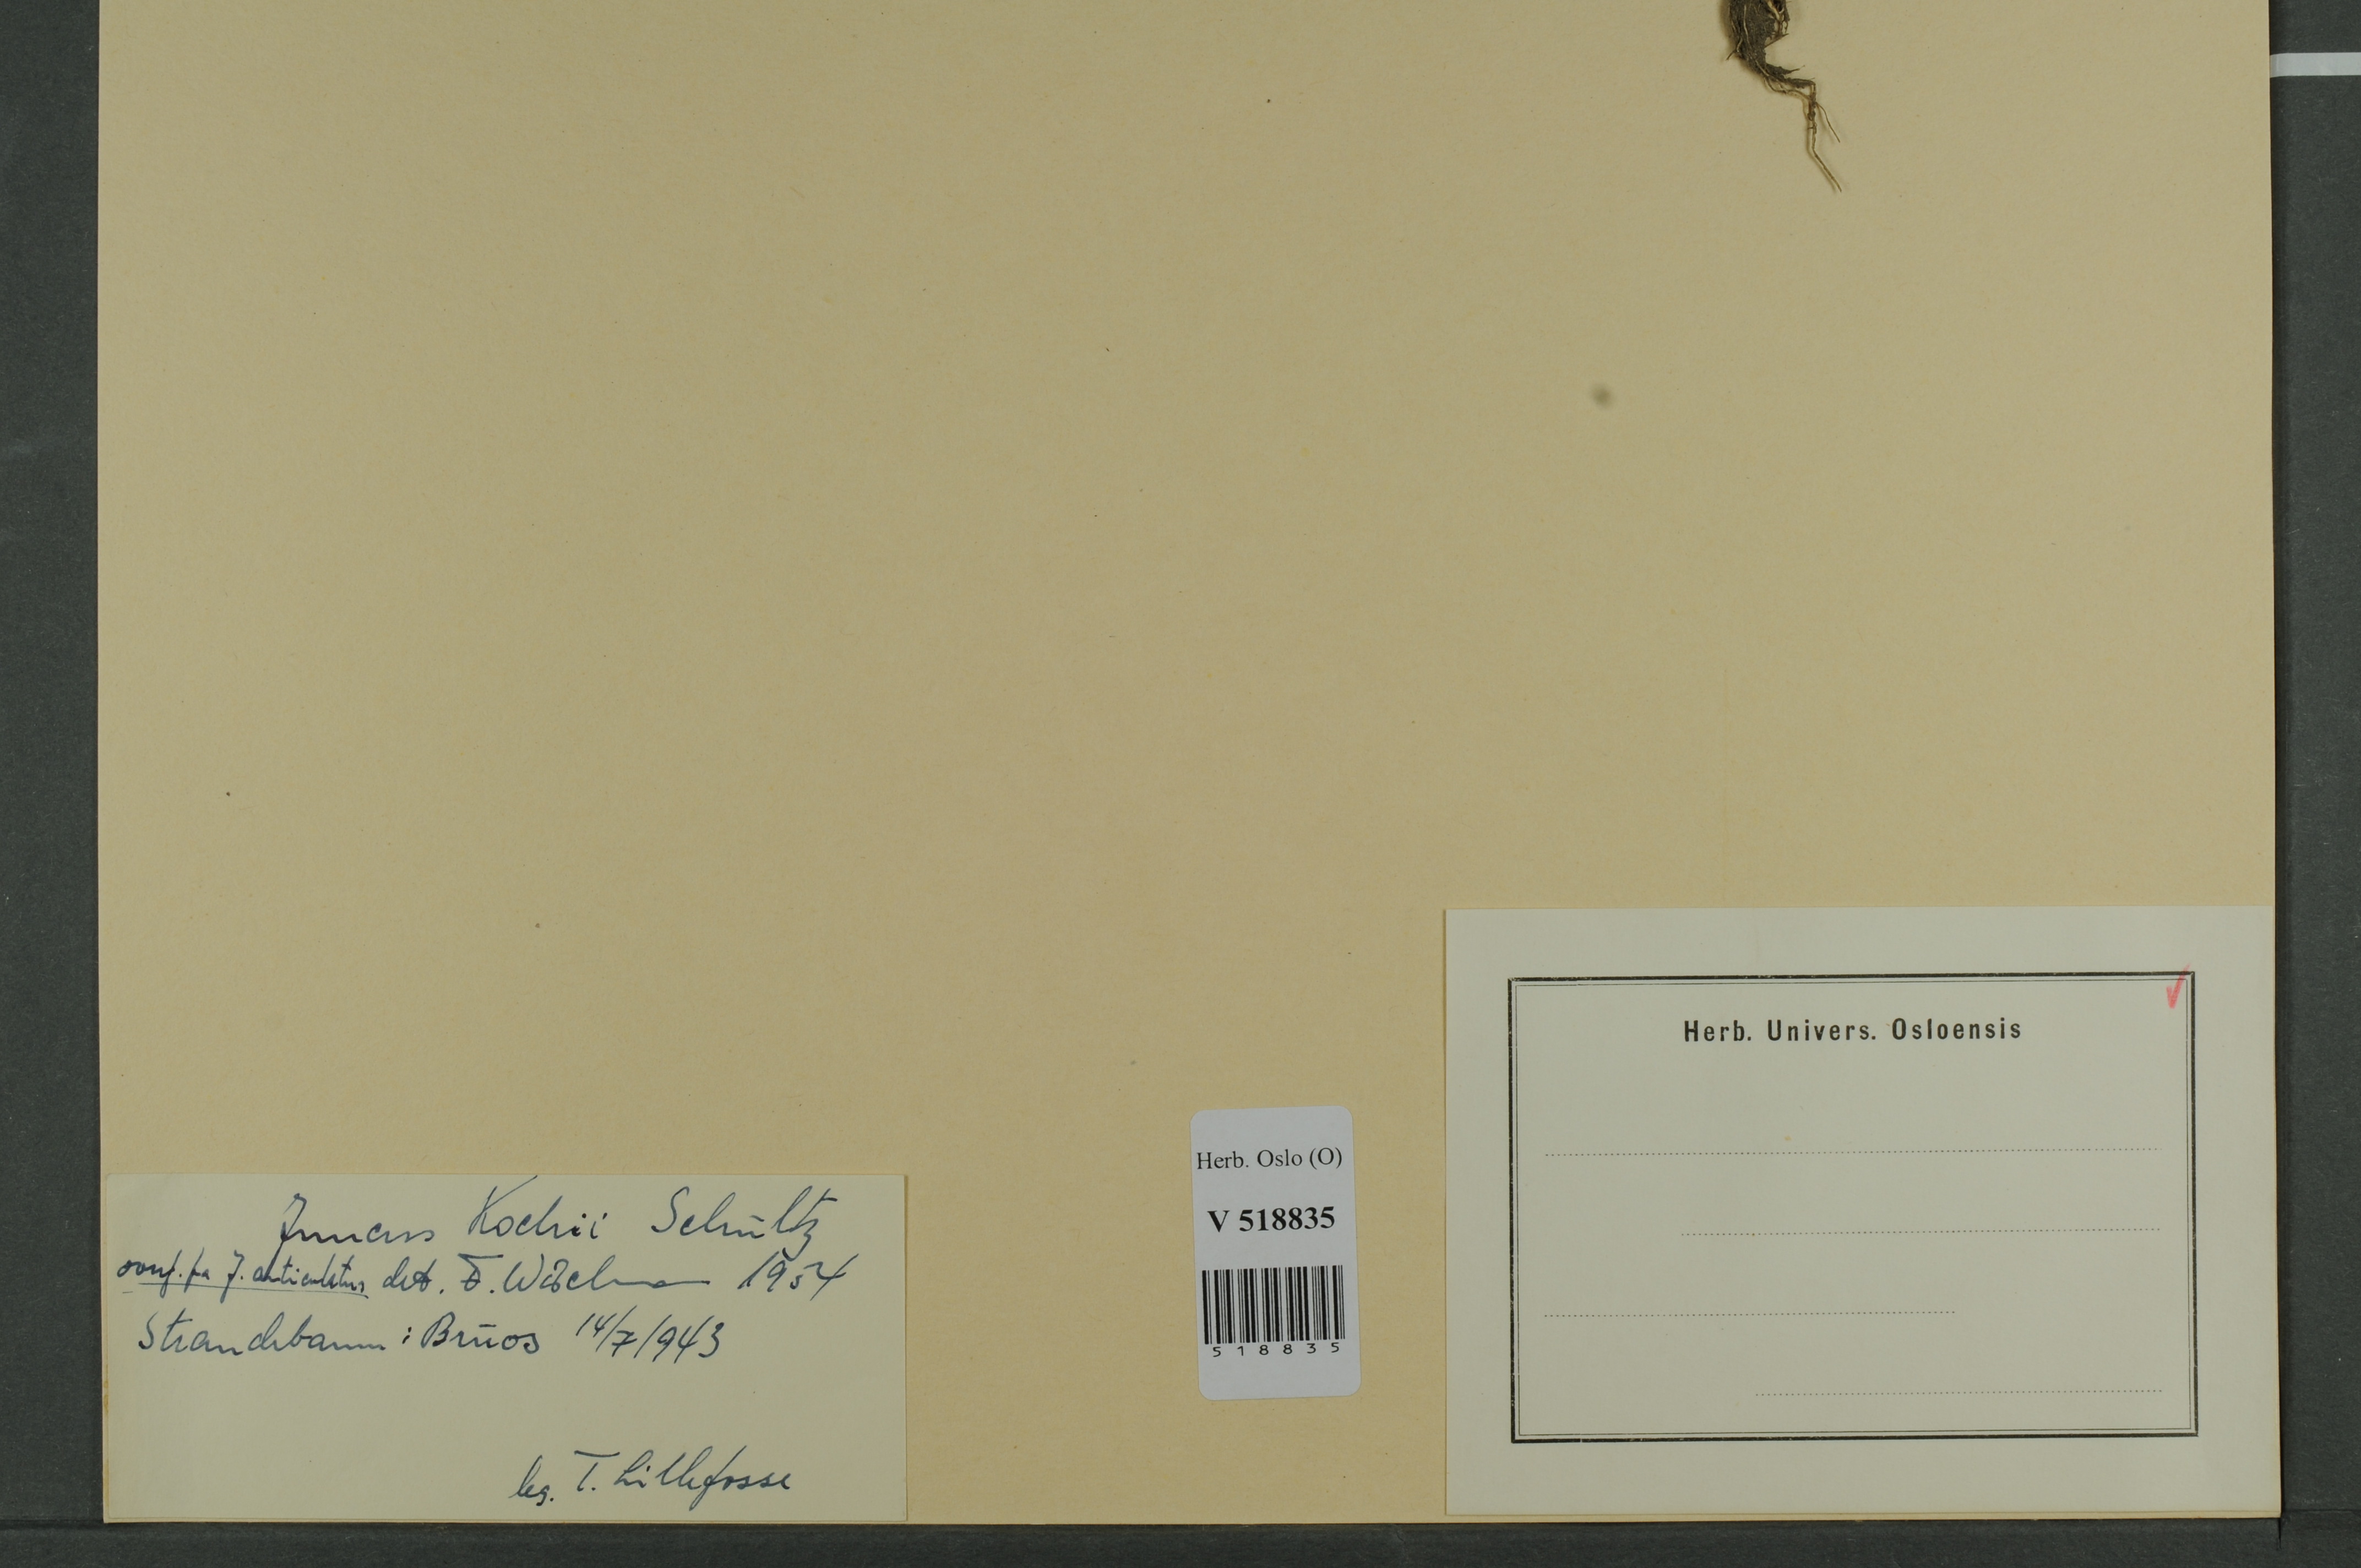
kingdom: Plantae
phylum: Tracheophyta
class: Liliopsida
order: Poales
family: Juncaceae
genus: Juncus
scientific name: Juncus bulbosus
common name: Bulbous rush
